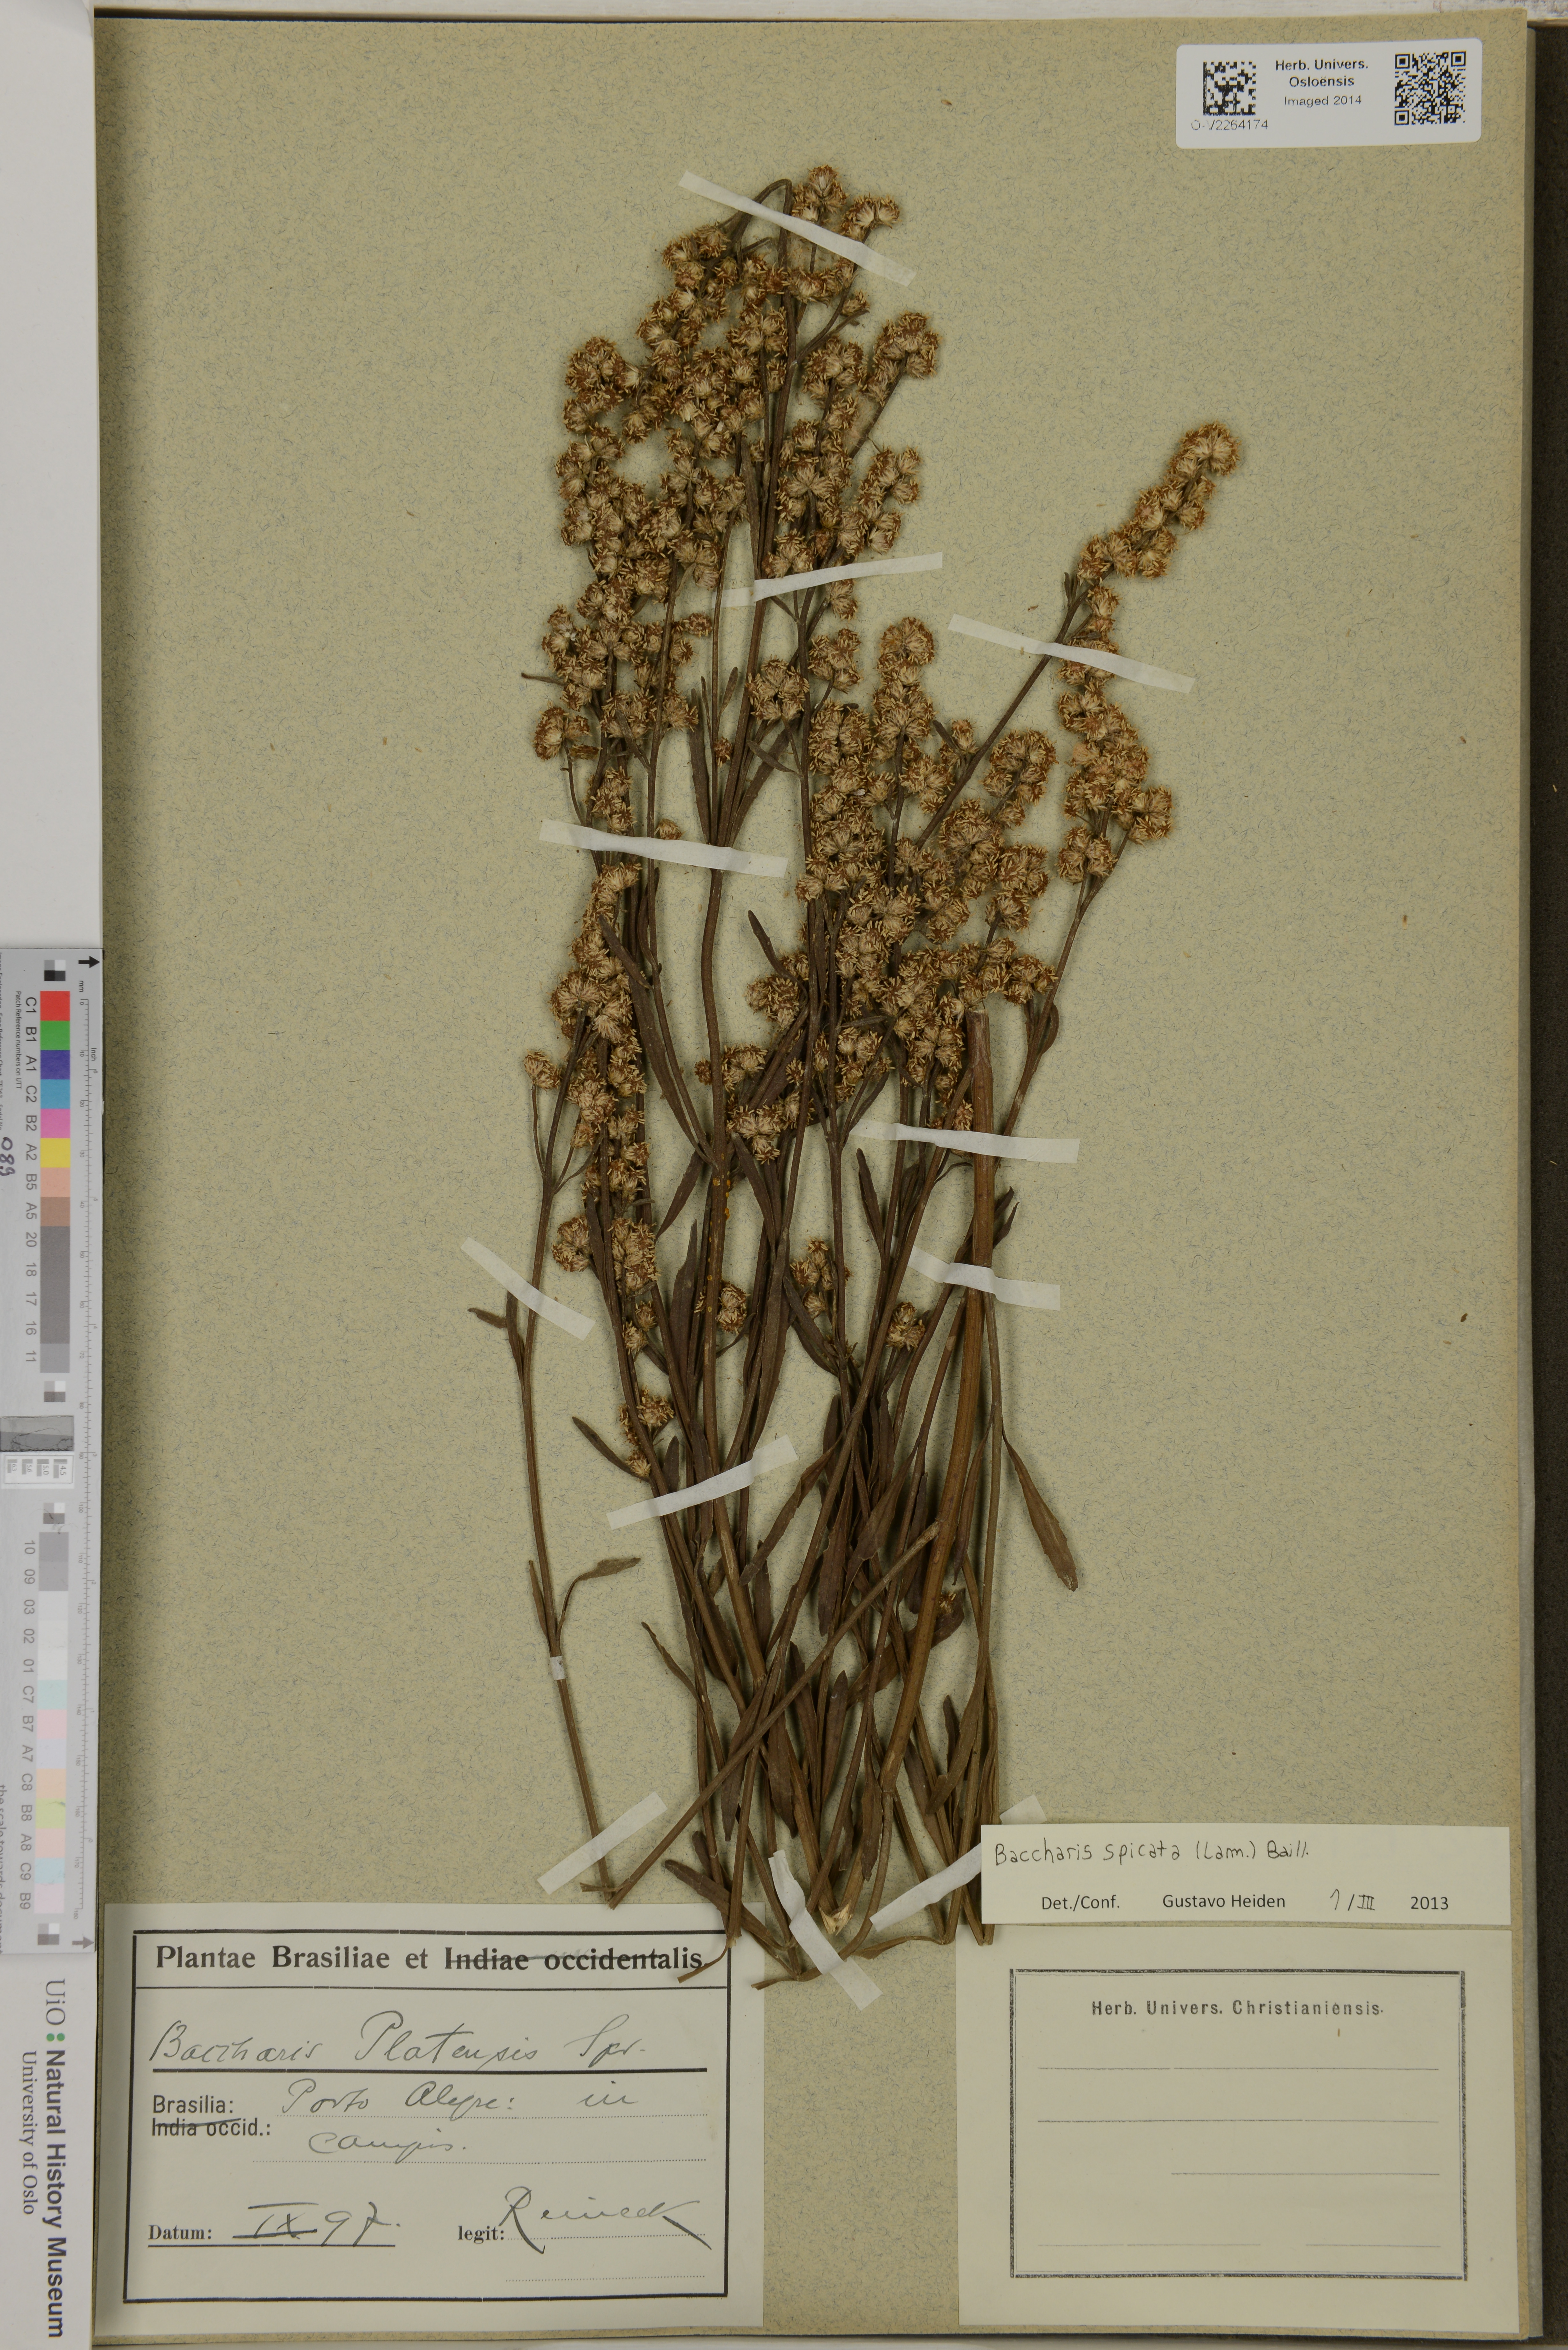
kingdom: Plantae
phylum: Tracheophyta
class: Magnoliopsida
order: Asterales
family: Asteraceae
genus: Baccharis
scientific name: Baccharis spicata
